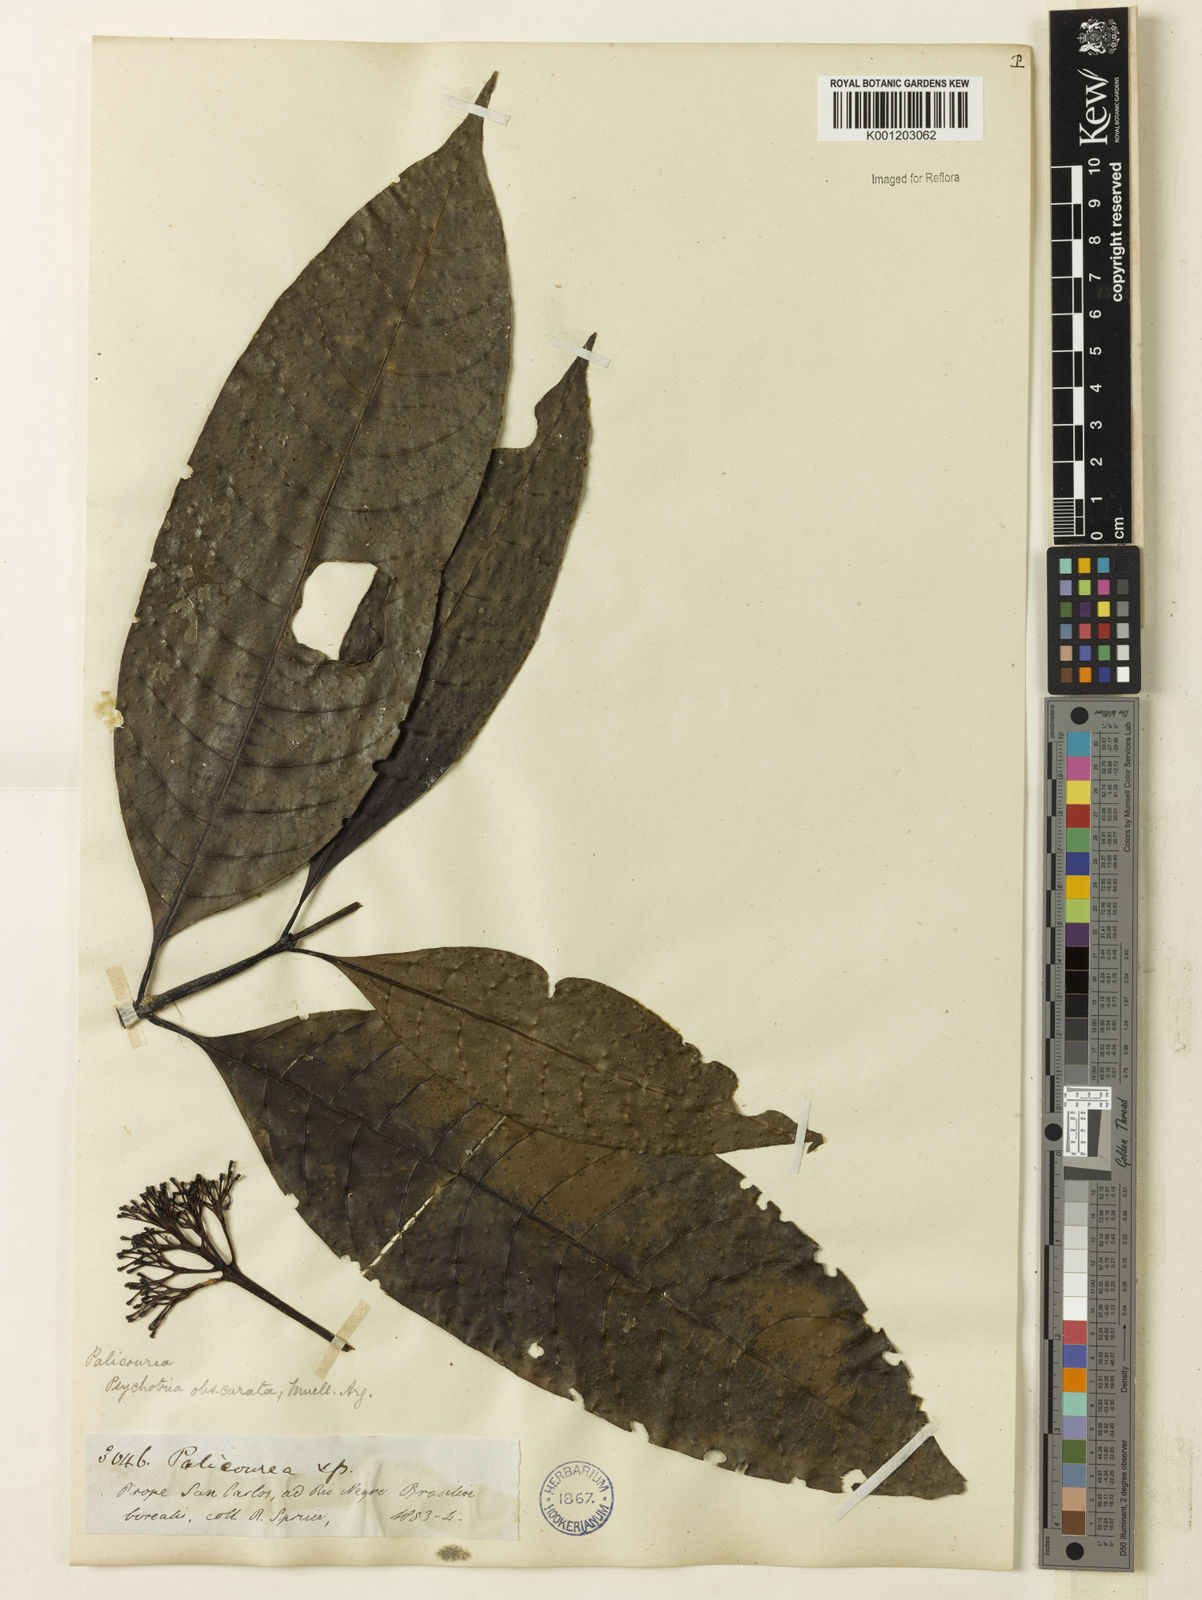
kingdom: Plantae
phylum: Tracheophyta
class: Magnoliopsida
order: Gentianales
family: Rubiaceae
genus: Palicourea
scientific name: Palicourea grandiflora
